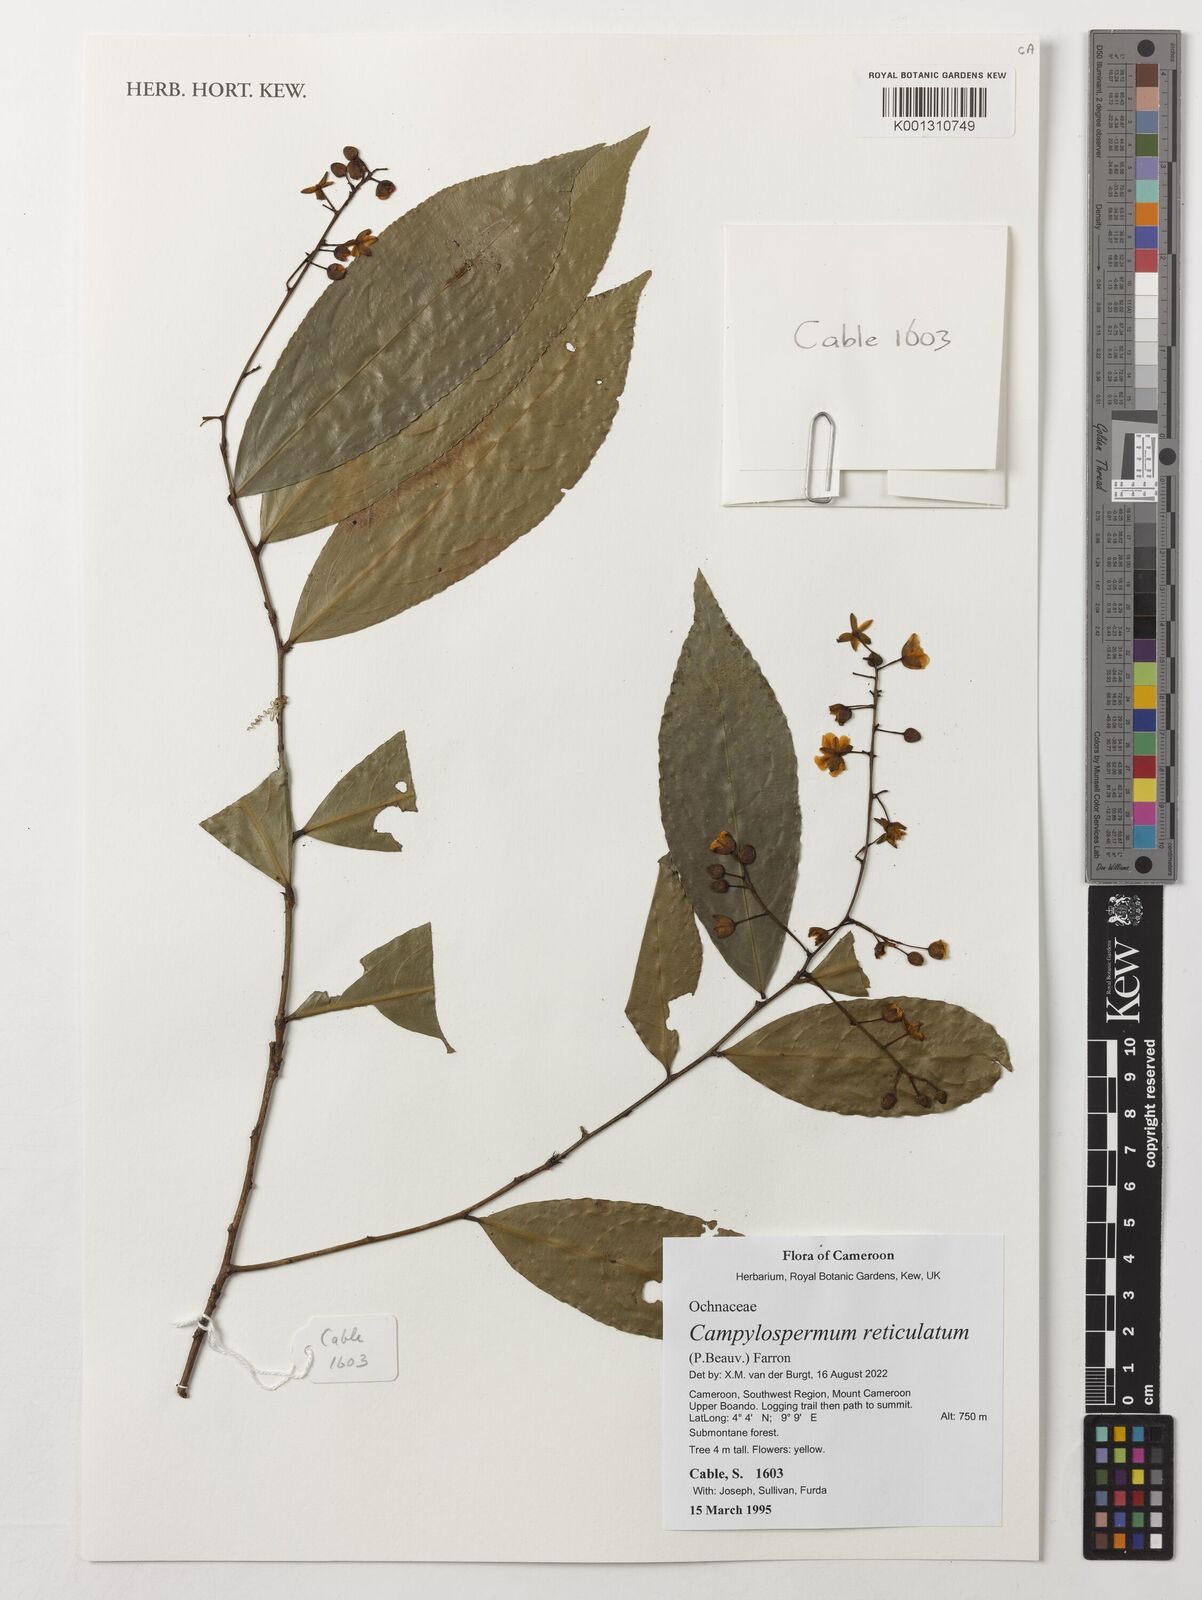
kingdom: Plantae
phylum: Tracheophyta
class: Magnoliopsida
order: Malpighiales
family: Ochnaceae
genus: Campylospermum
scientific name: Campylospermum reticulatum
